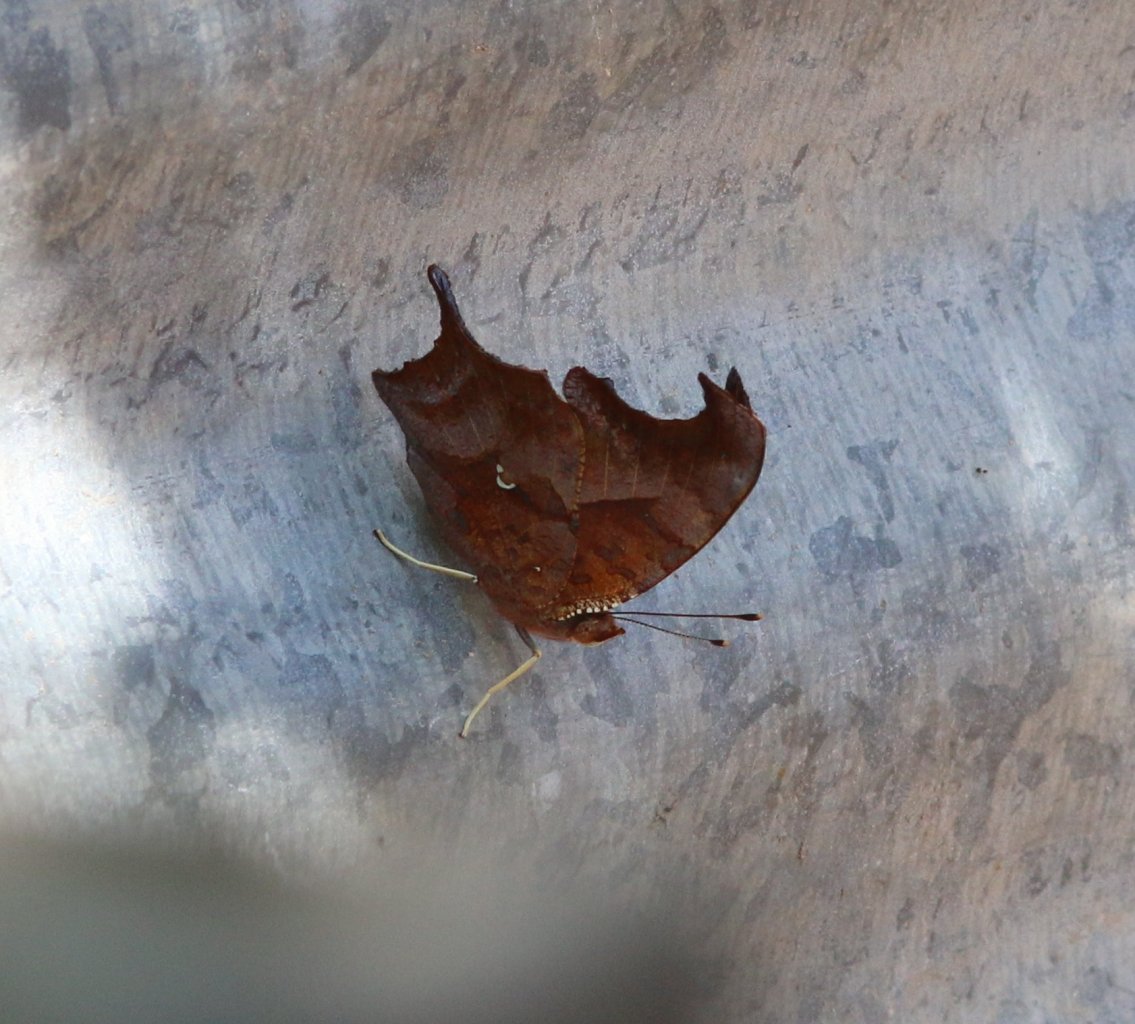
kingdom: Animalia
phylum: Arthropoda
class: Insecta
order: Lepidoptera
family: Nymphalidae
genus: Polygonia
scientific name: Polygonia interrogationis
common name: Question Mark
